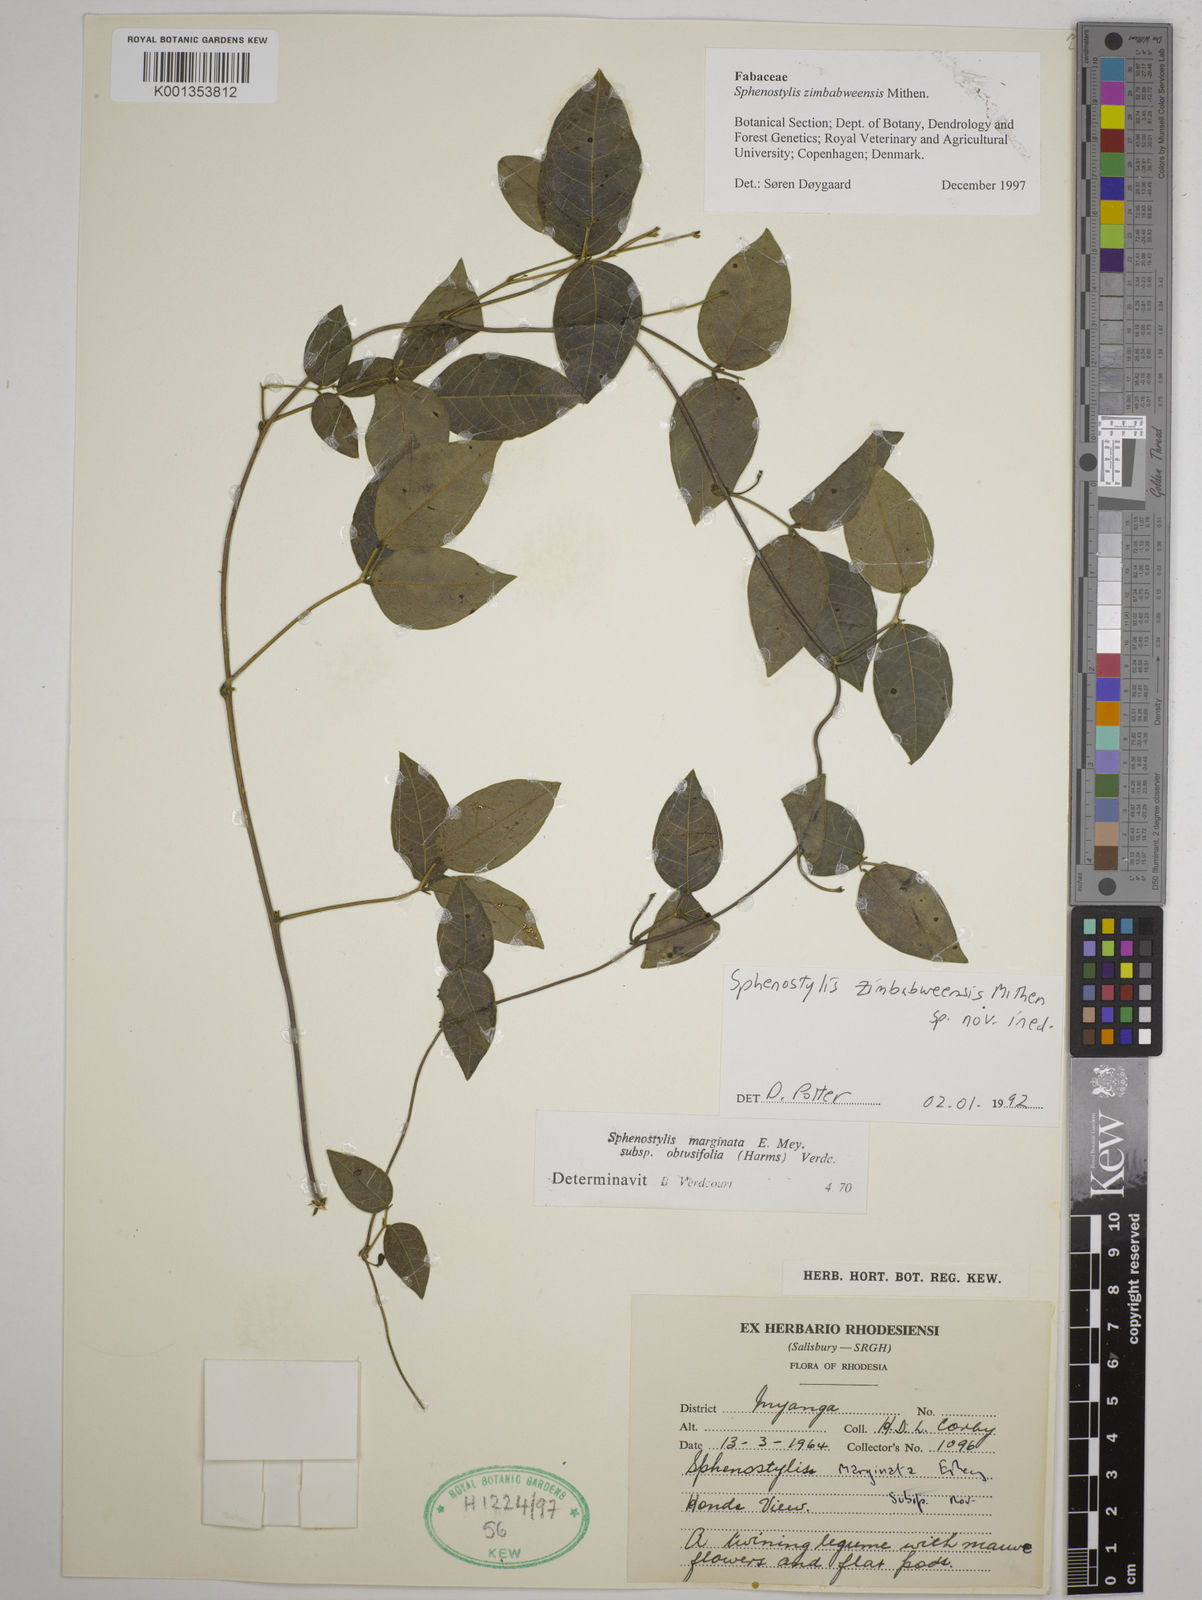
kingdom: Plantae
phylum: Tracheophyta
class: Magnoliopsida
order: Fabales
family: Fabaceae
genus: Sphenostylis
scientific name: Sphenostylis zimbabweensis
